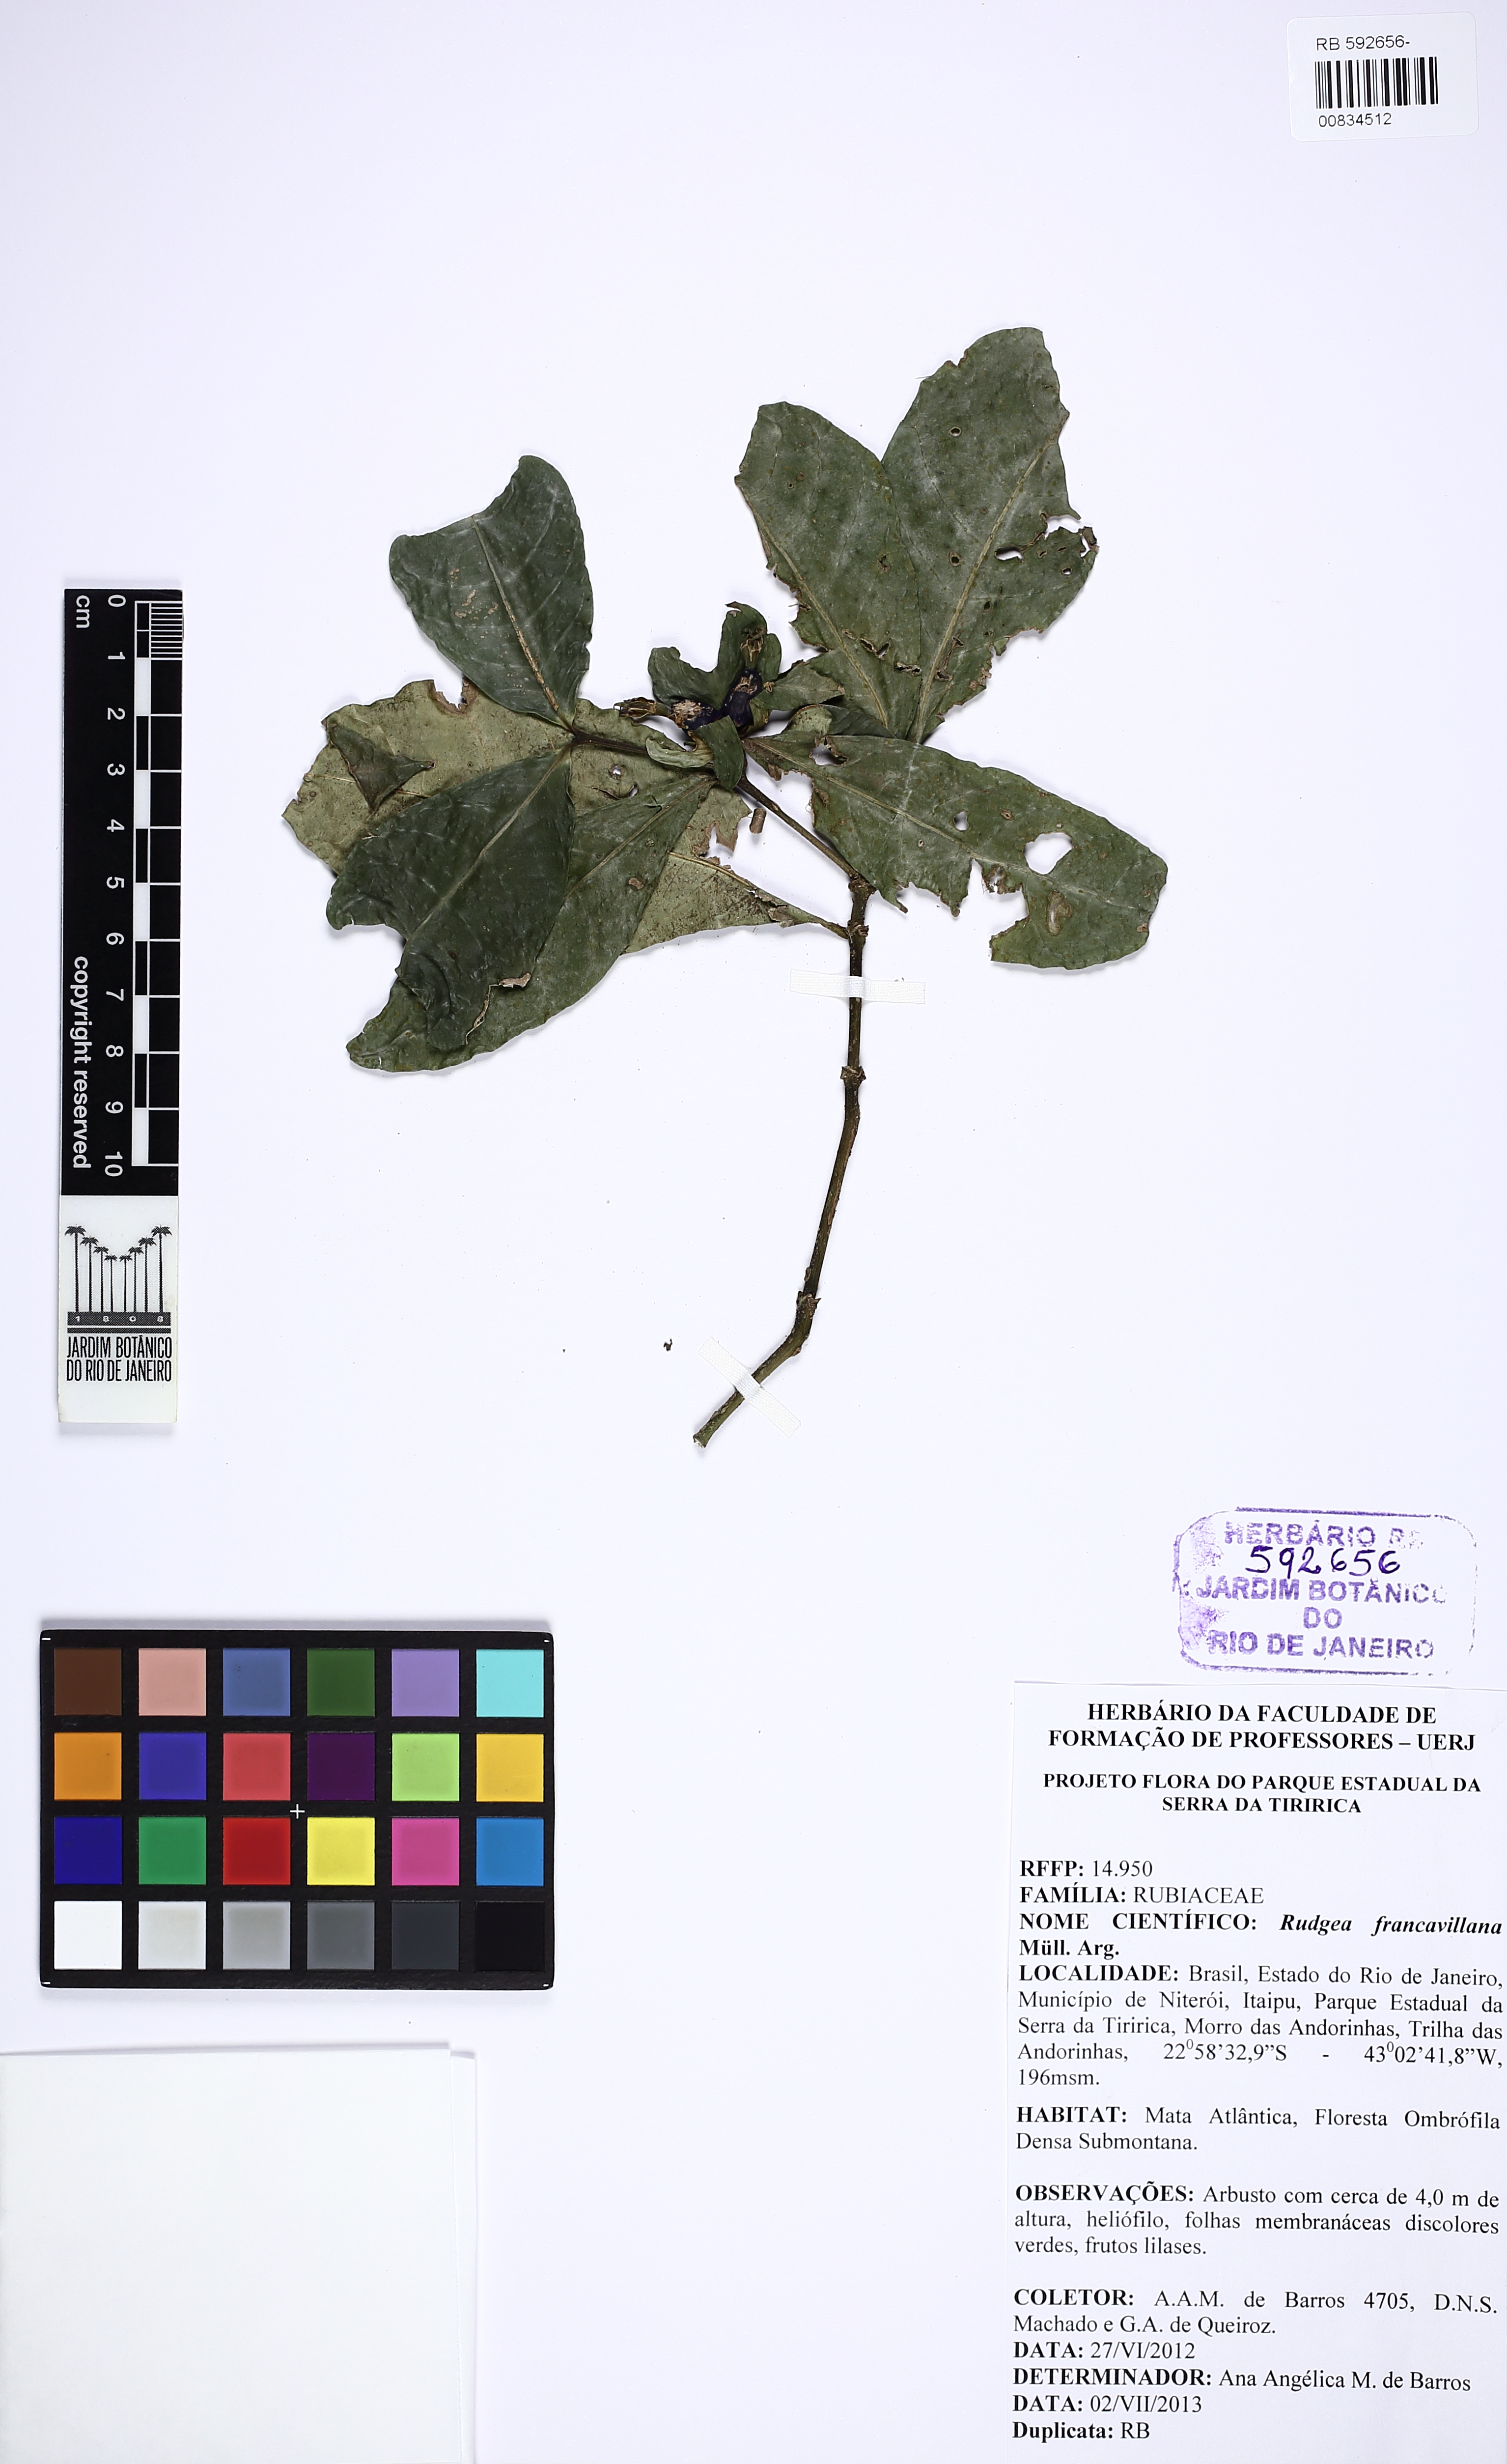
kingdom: Plantae
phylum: Tracheophyta
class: Magnoliopsida
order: Gentianales
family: Rubiaceae
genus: Rudgea
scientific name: Rudgea francavillana
